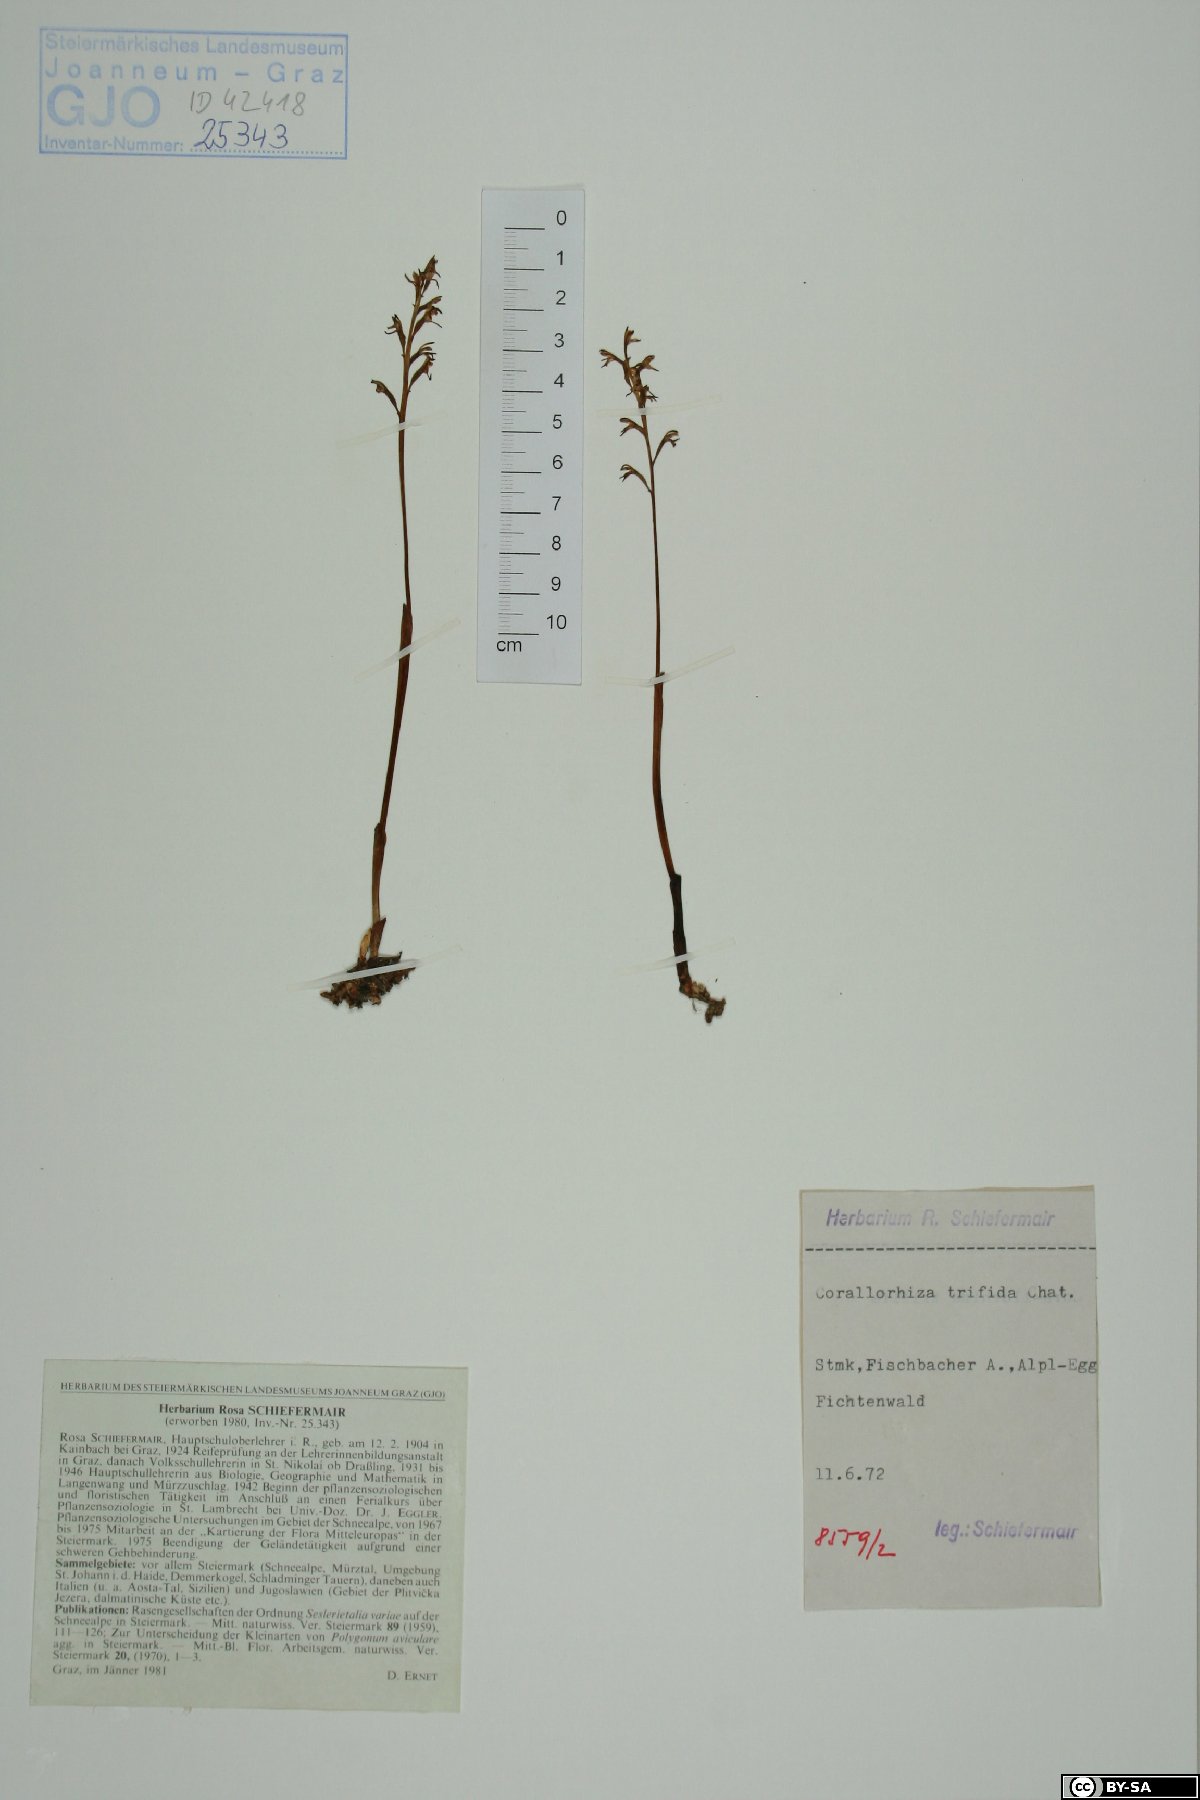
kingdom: Plantae
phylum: Tracheophyta
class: Liliopsida
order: Asparagales
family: Orchidaceae
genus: Corallorhiza
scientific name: Corallorhiza trifida
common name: Yellow coralroot
